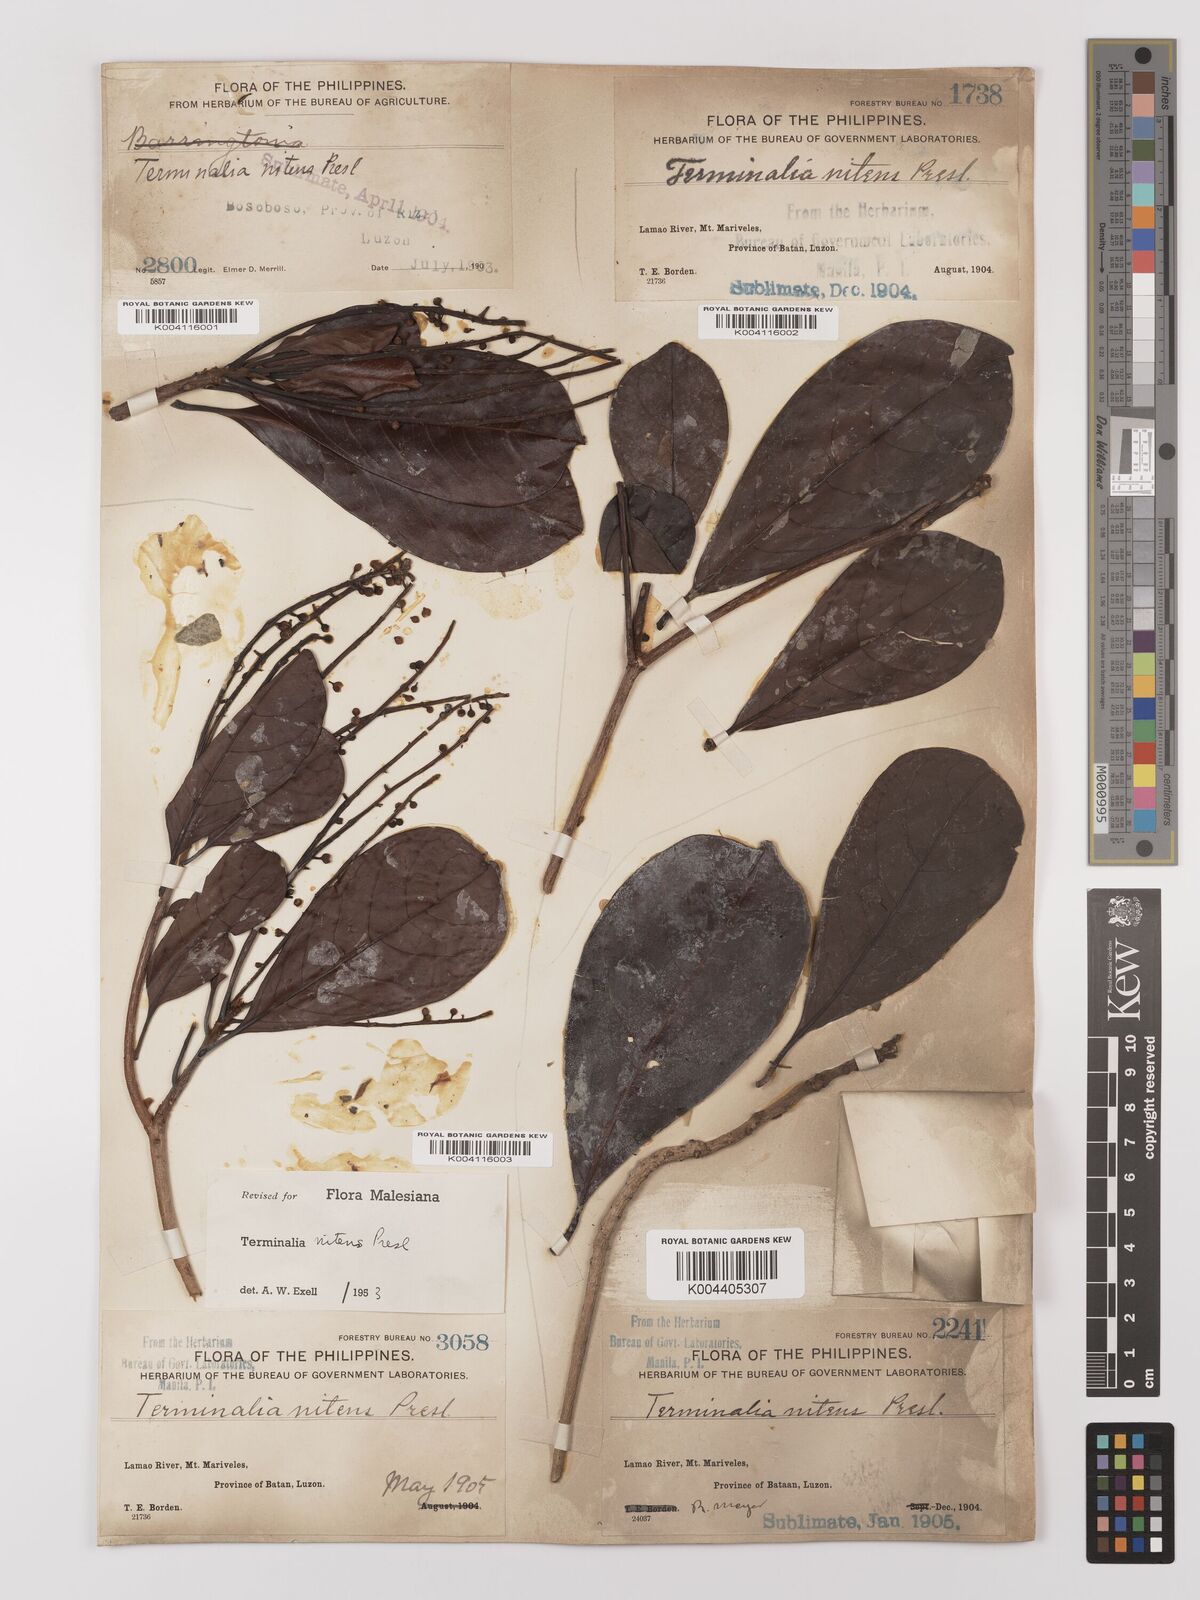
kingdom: Plantae
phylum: Tracheophyta
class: Magnoliopsida
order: Myrtales
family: Combretaceae
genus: Terminalia
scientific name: Terminalia nitens
